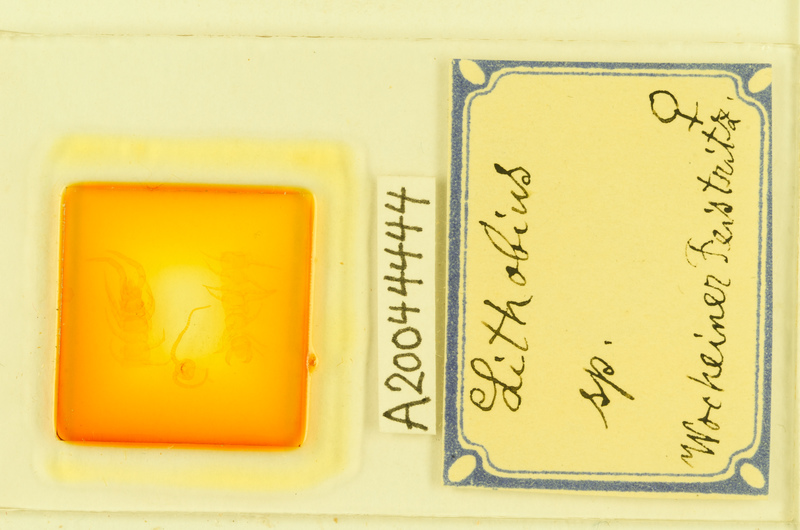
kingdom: Animalia
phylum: Arthropoda
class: Chilopoda
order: Lithobiomorpha
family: Lithobiidae
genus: Lithobius
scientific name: Lithobius
